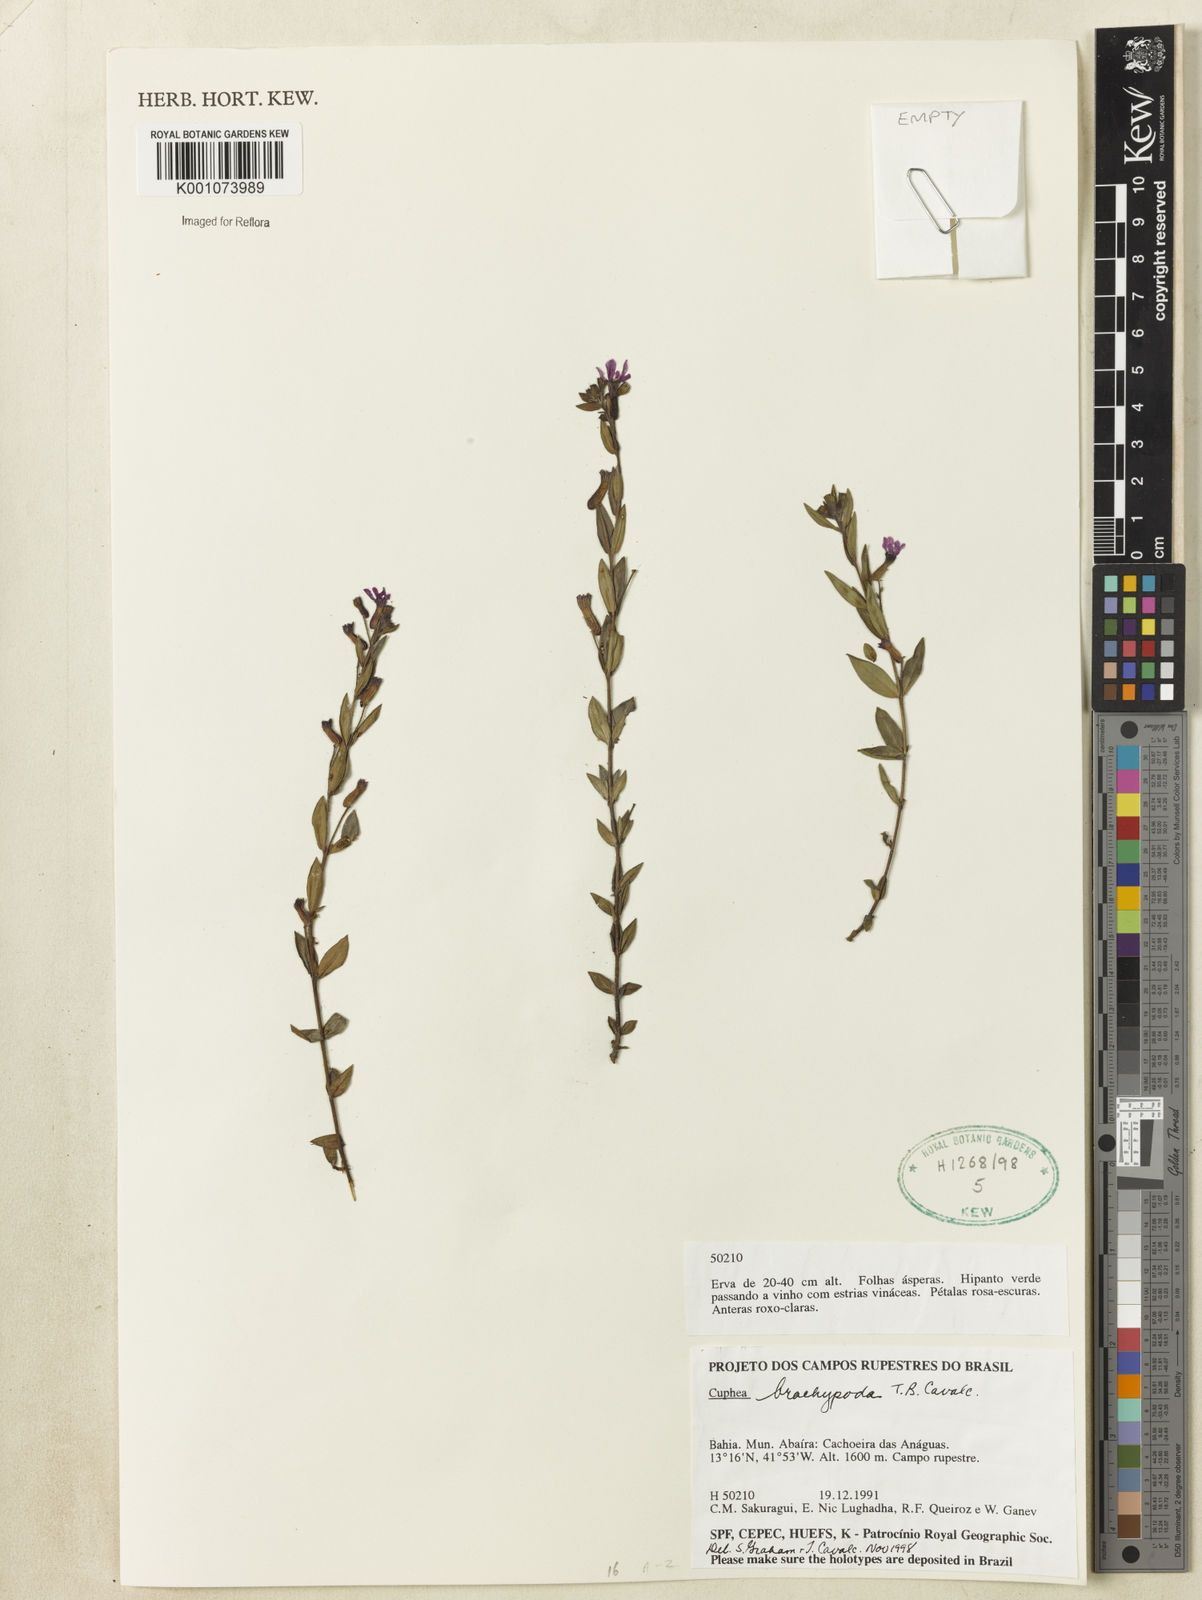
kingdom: Plantae
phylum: Tracheophyta
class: Magnoliopsida
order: Myrtales
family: Lythraceae
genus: Cuphea
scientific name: Cuphea brachypoda
